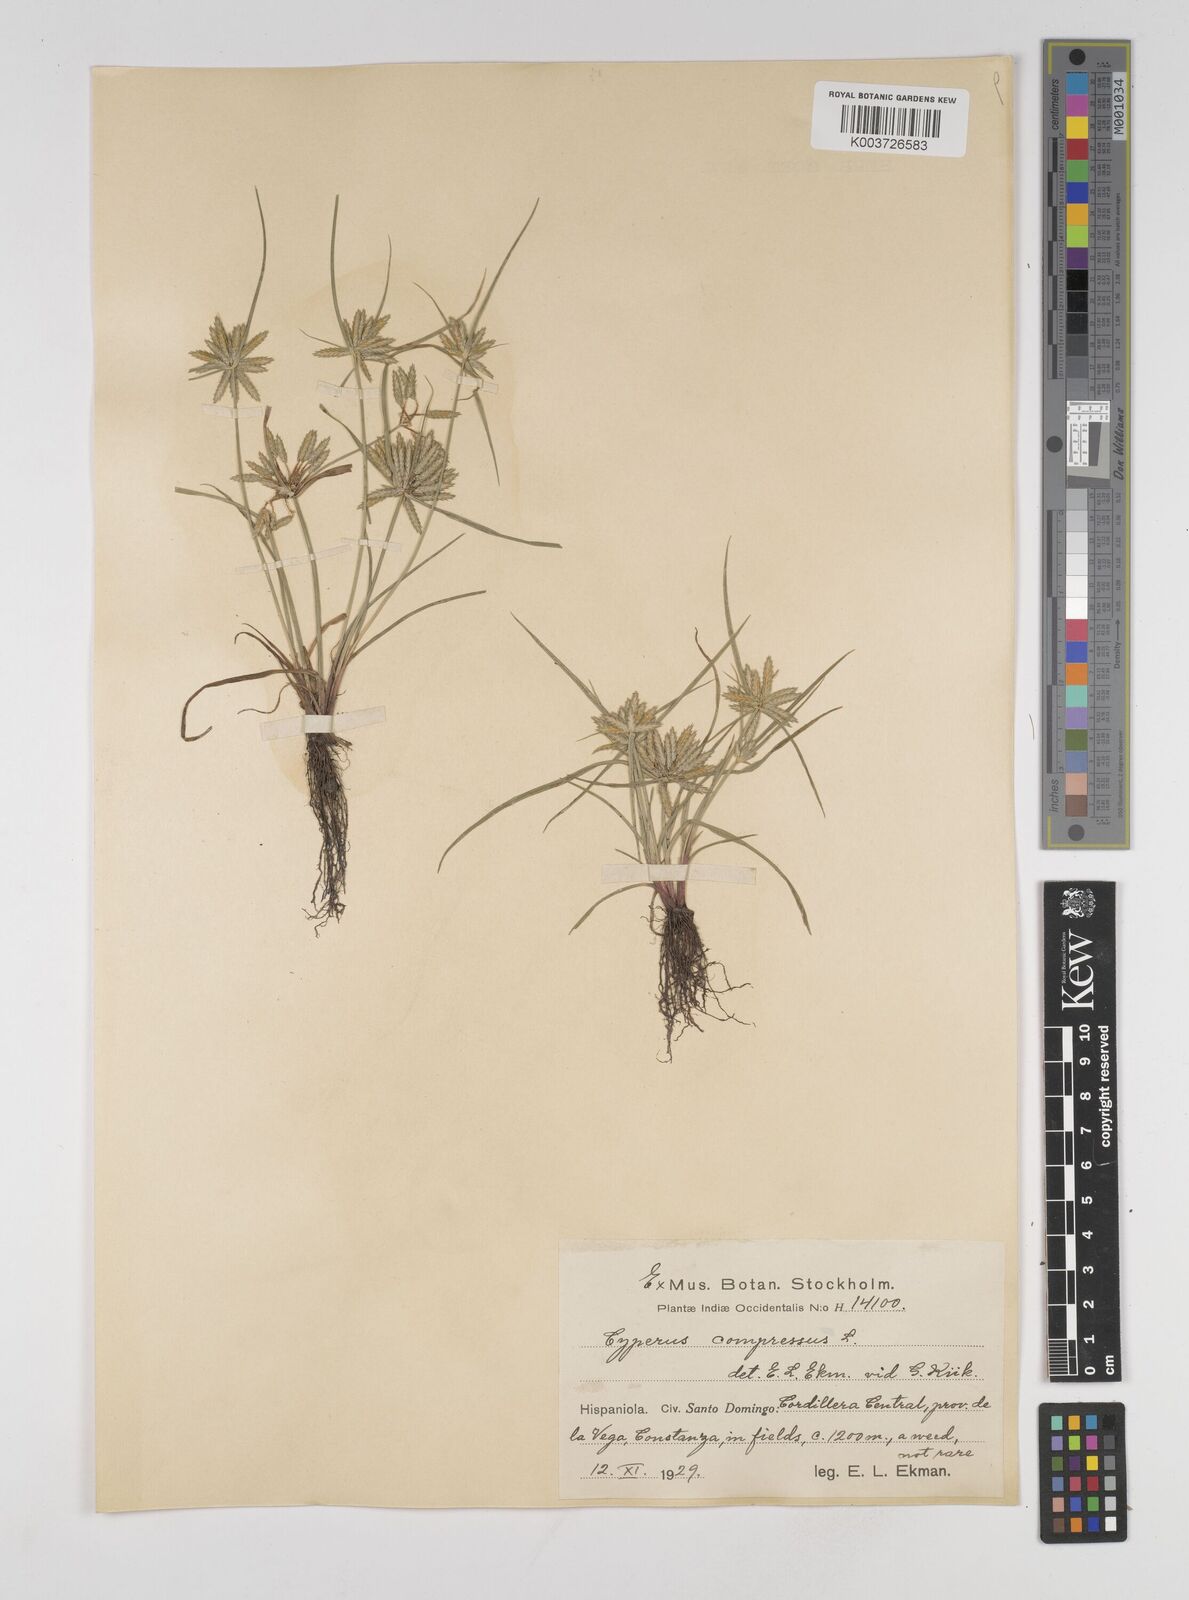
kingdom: Plantae
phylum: Tracheophyta
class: Liliopsida
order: Poales
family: Cyperaceae
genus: Cyperus
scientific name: Cyperus compressus
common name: Poorland flatsedge
